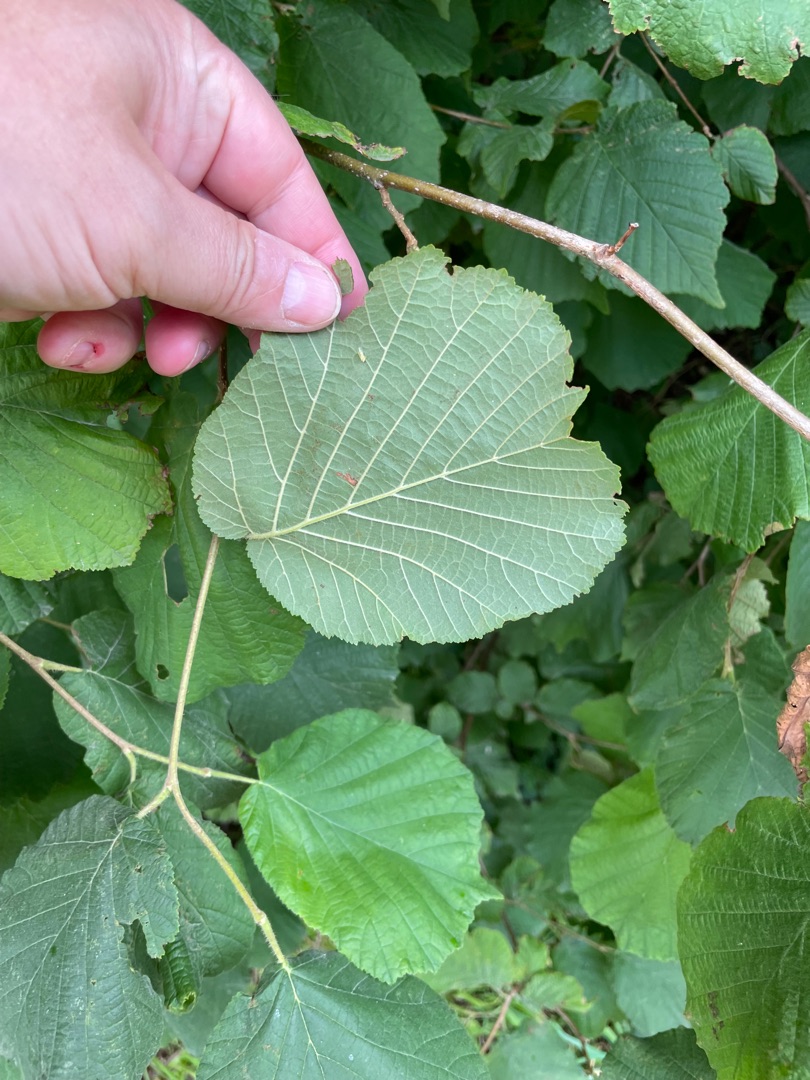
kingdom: Plantae
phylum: Tracheophyta
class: Magnoliopsida
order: Fagales
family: Betulaceae
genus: Corylus
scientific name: Corylus avellana
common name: Hassel
